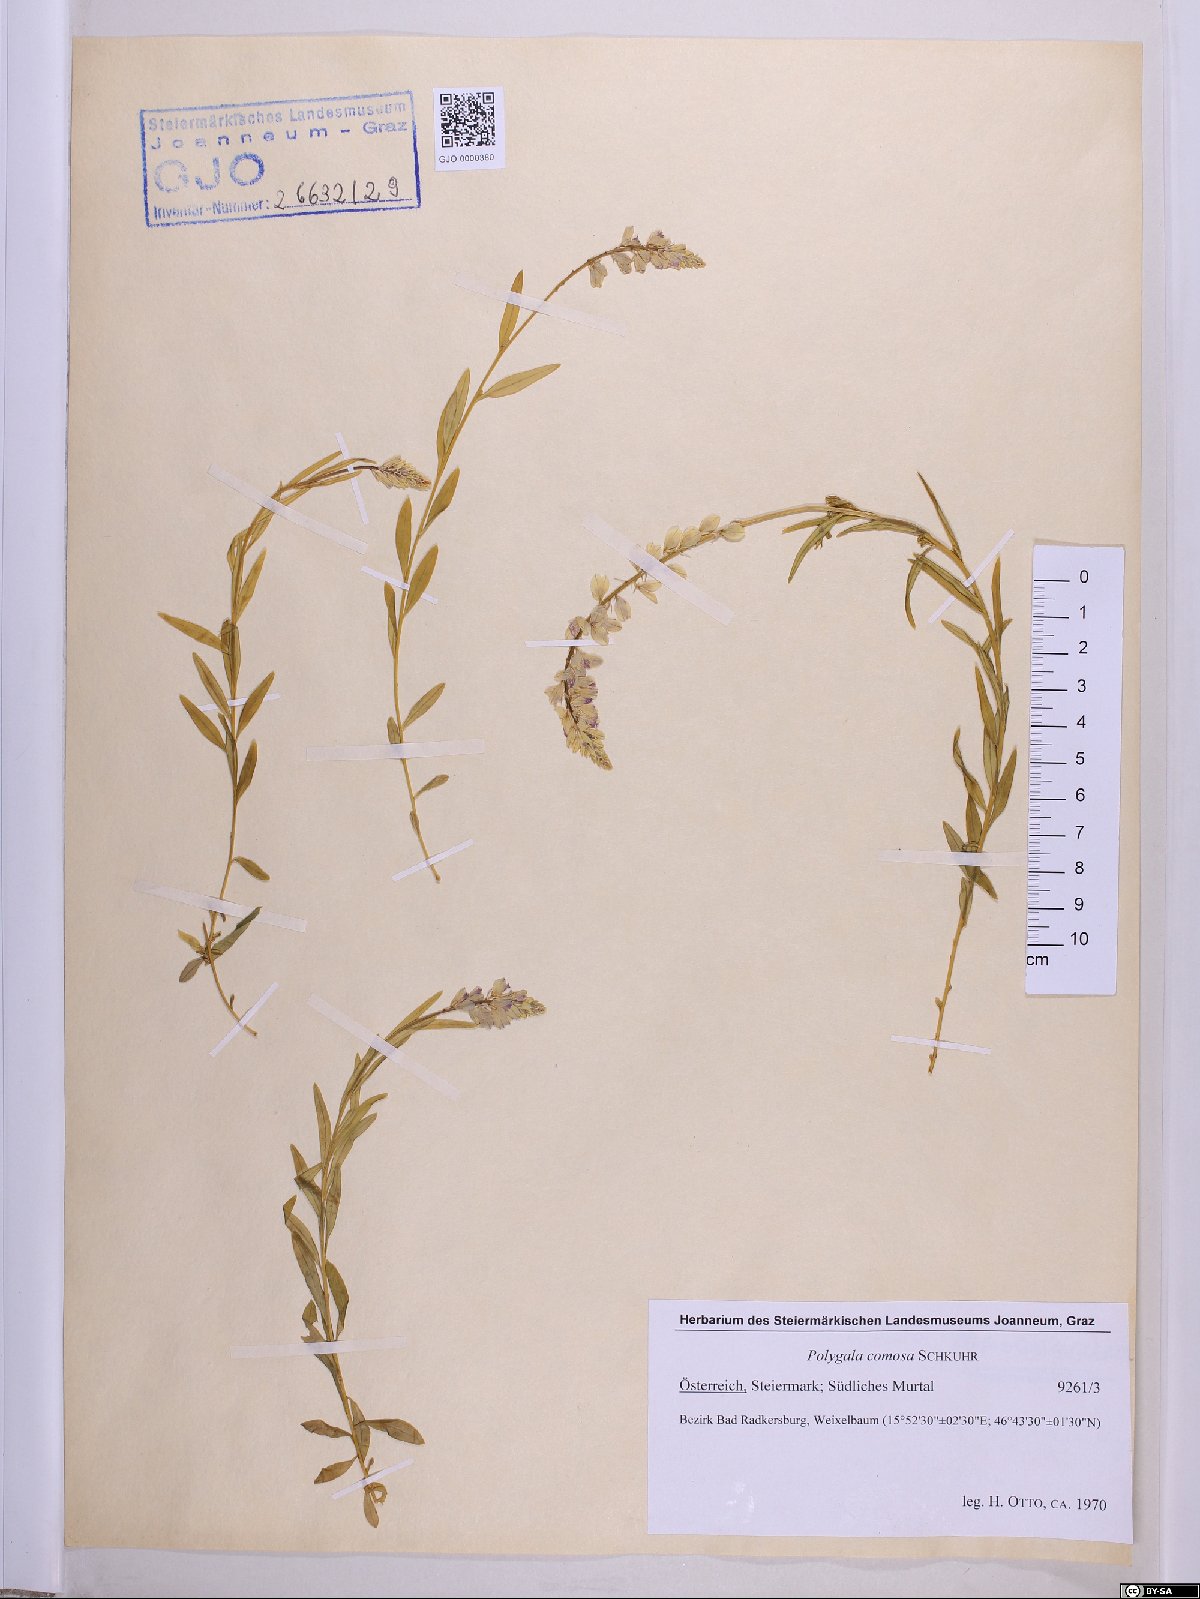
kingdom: Plantae
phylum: Tracheophyta
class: Magnoliopsida
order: Fabales
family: Polygalaceae
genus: Polygala
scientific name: Polygala comosa
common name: Tufted milkwort
